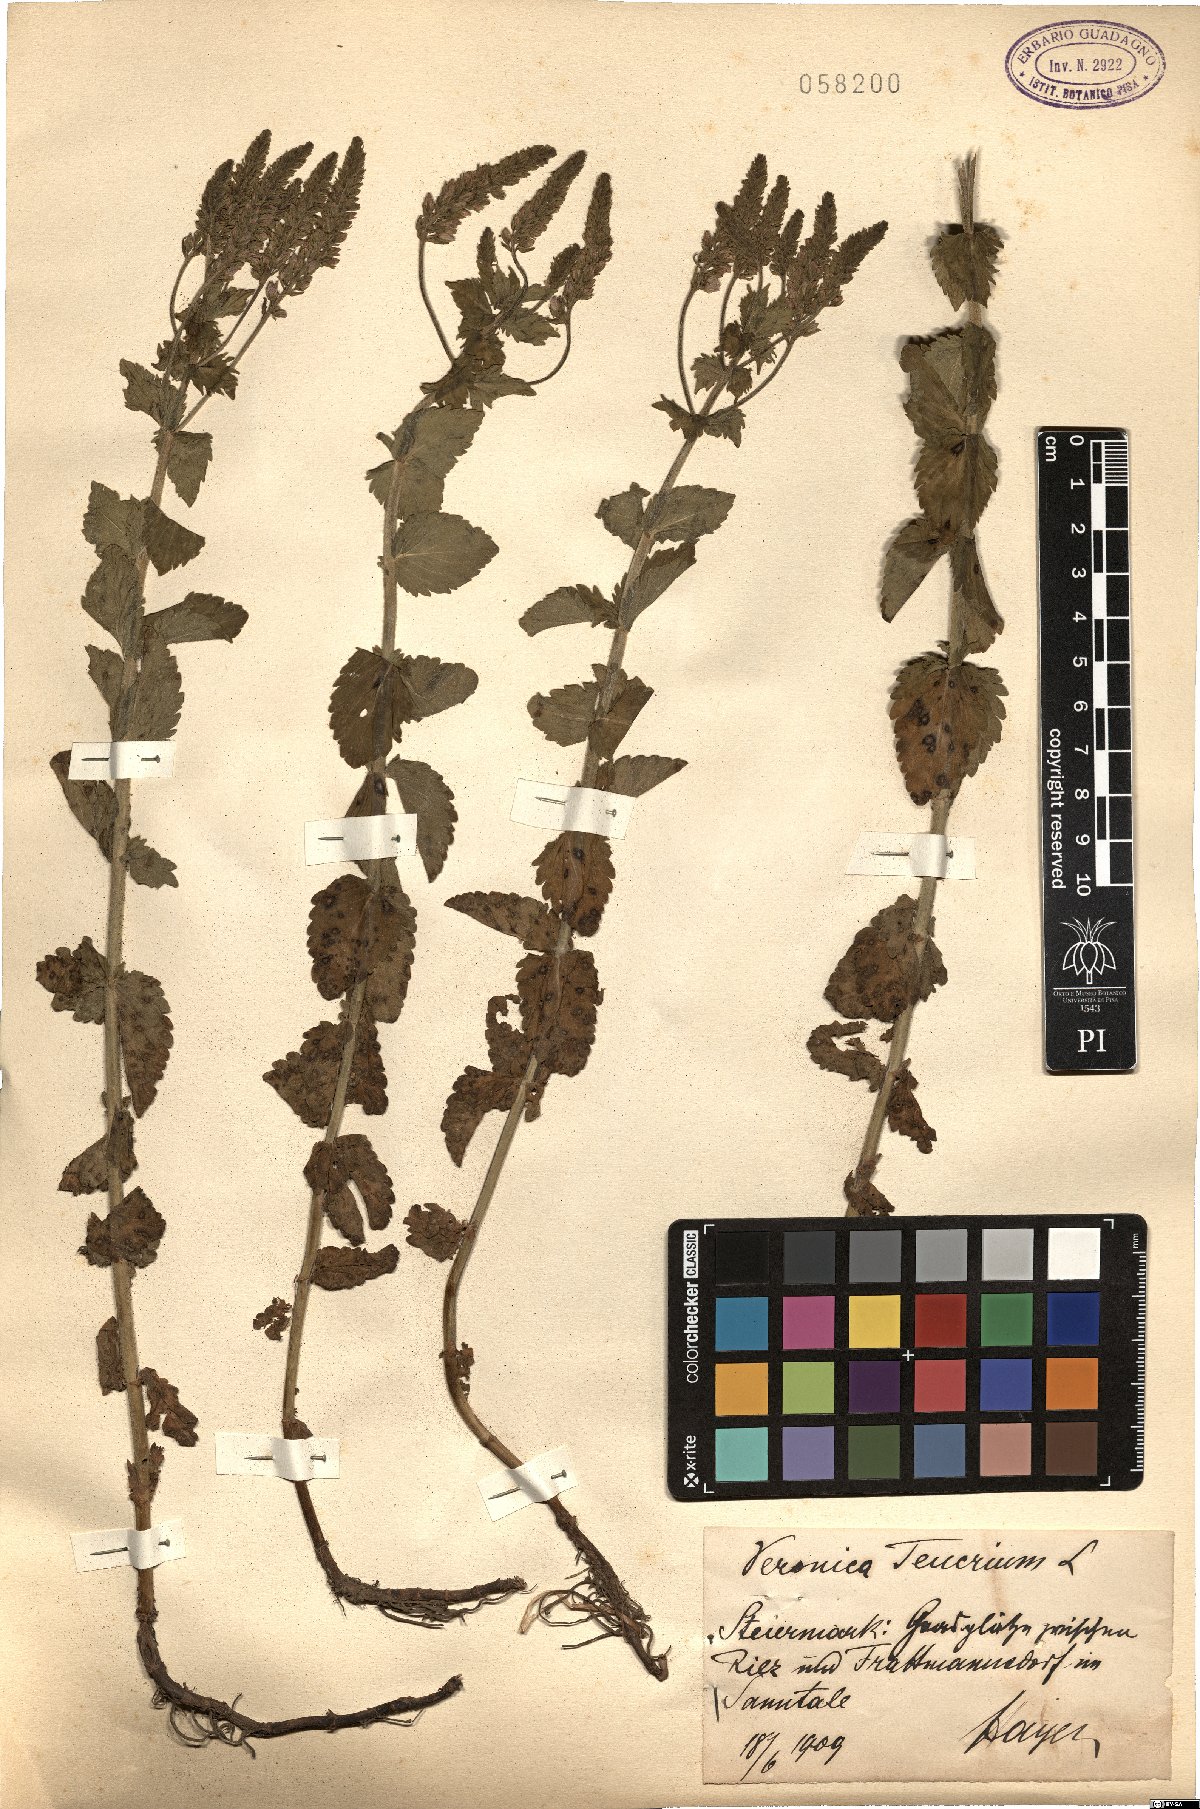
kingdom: Plantae
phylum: Tracheophyta
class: Magnoliopsida
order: Lamiales
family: Plantaginaceae
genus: Veronica
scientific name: Veronica teucrium
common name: Large speedwell
